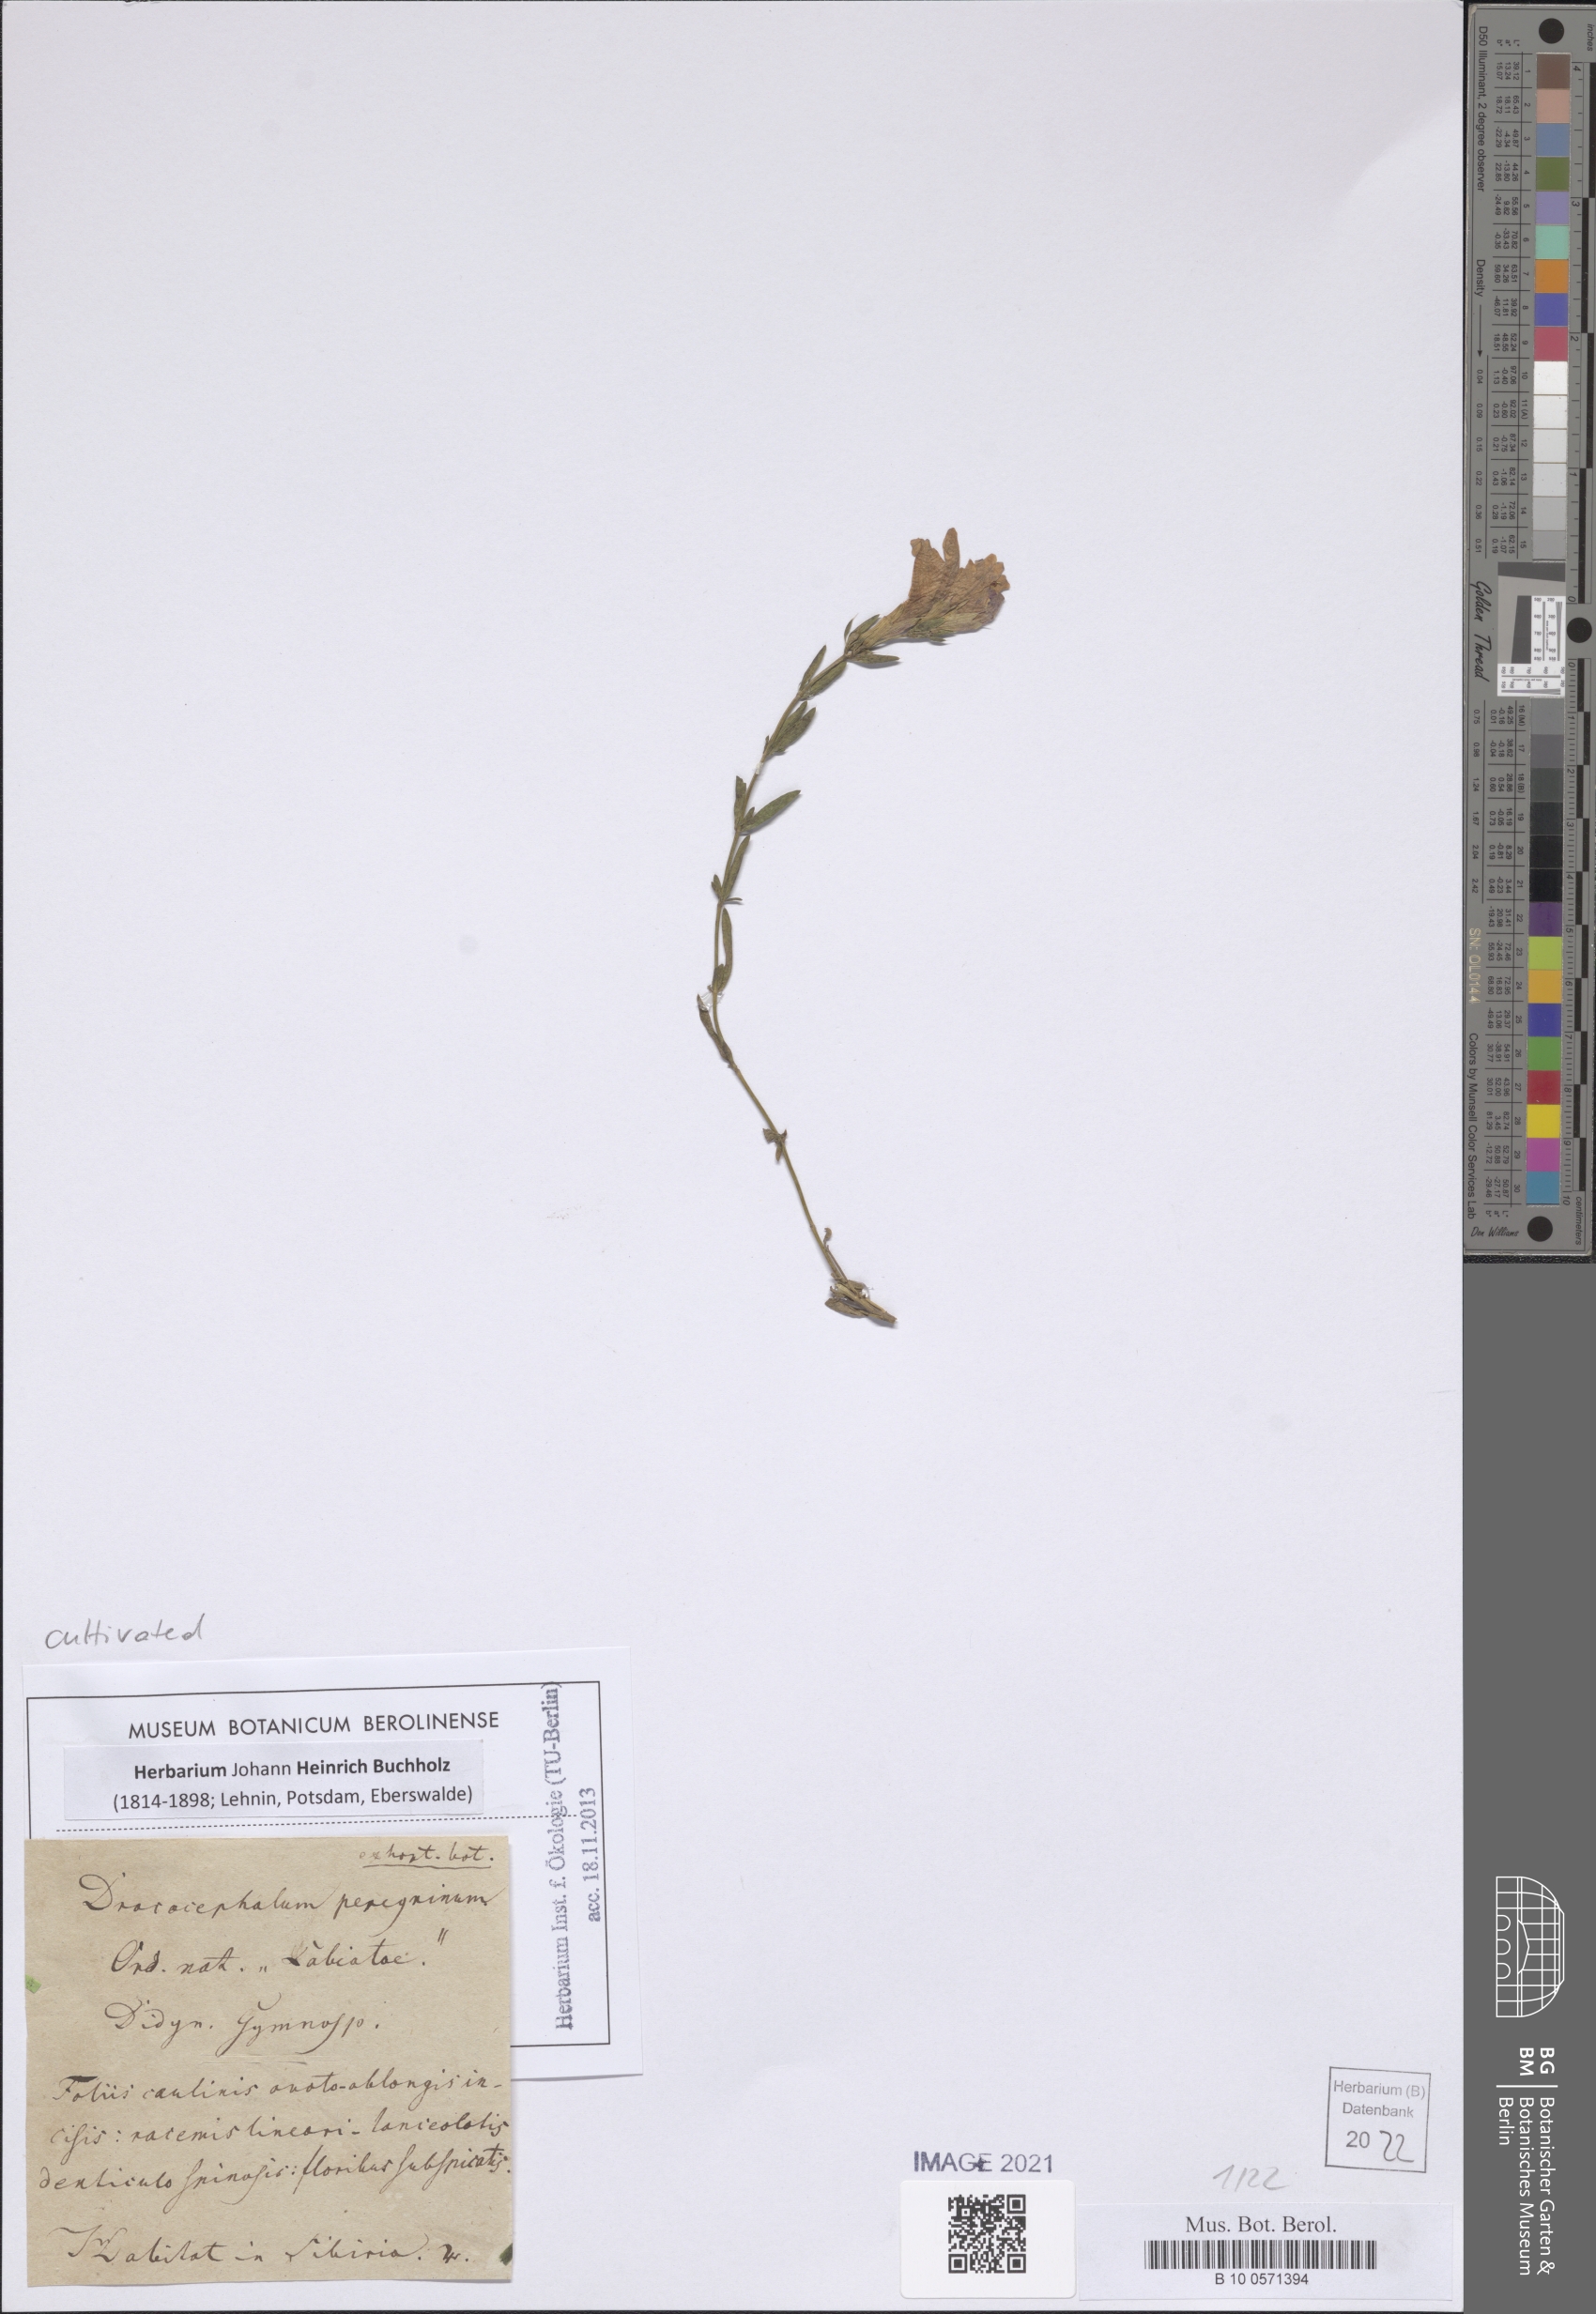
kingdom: Plantae
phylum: Tracheophyta
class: Magnoliopsida
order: Lamiales
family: Lamiaceae
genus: Dracocephalum
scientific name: Dracocephalum peregrinum
